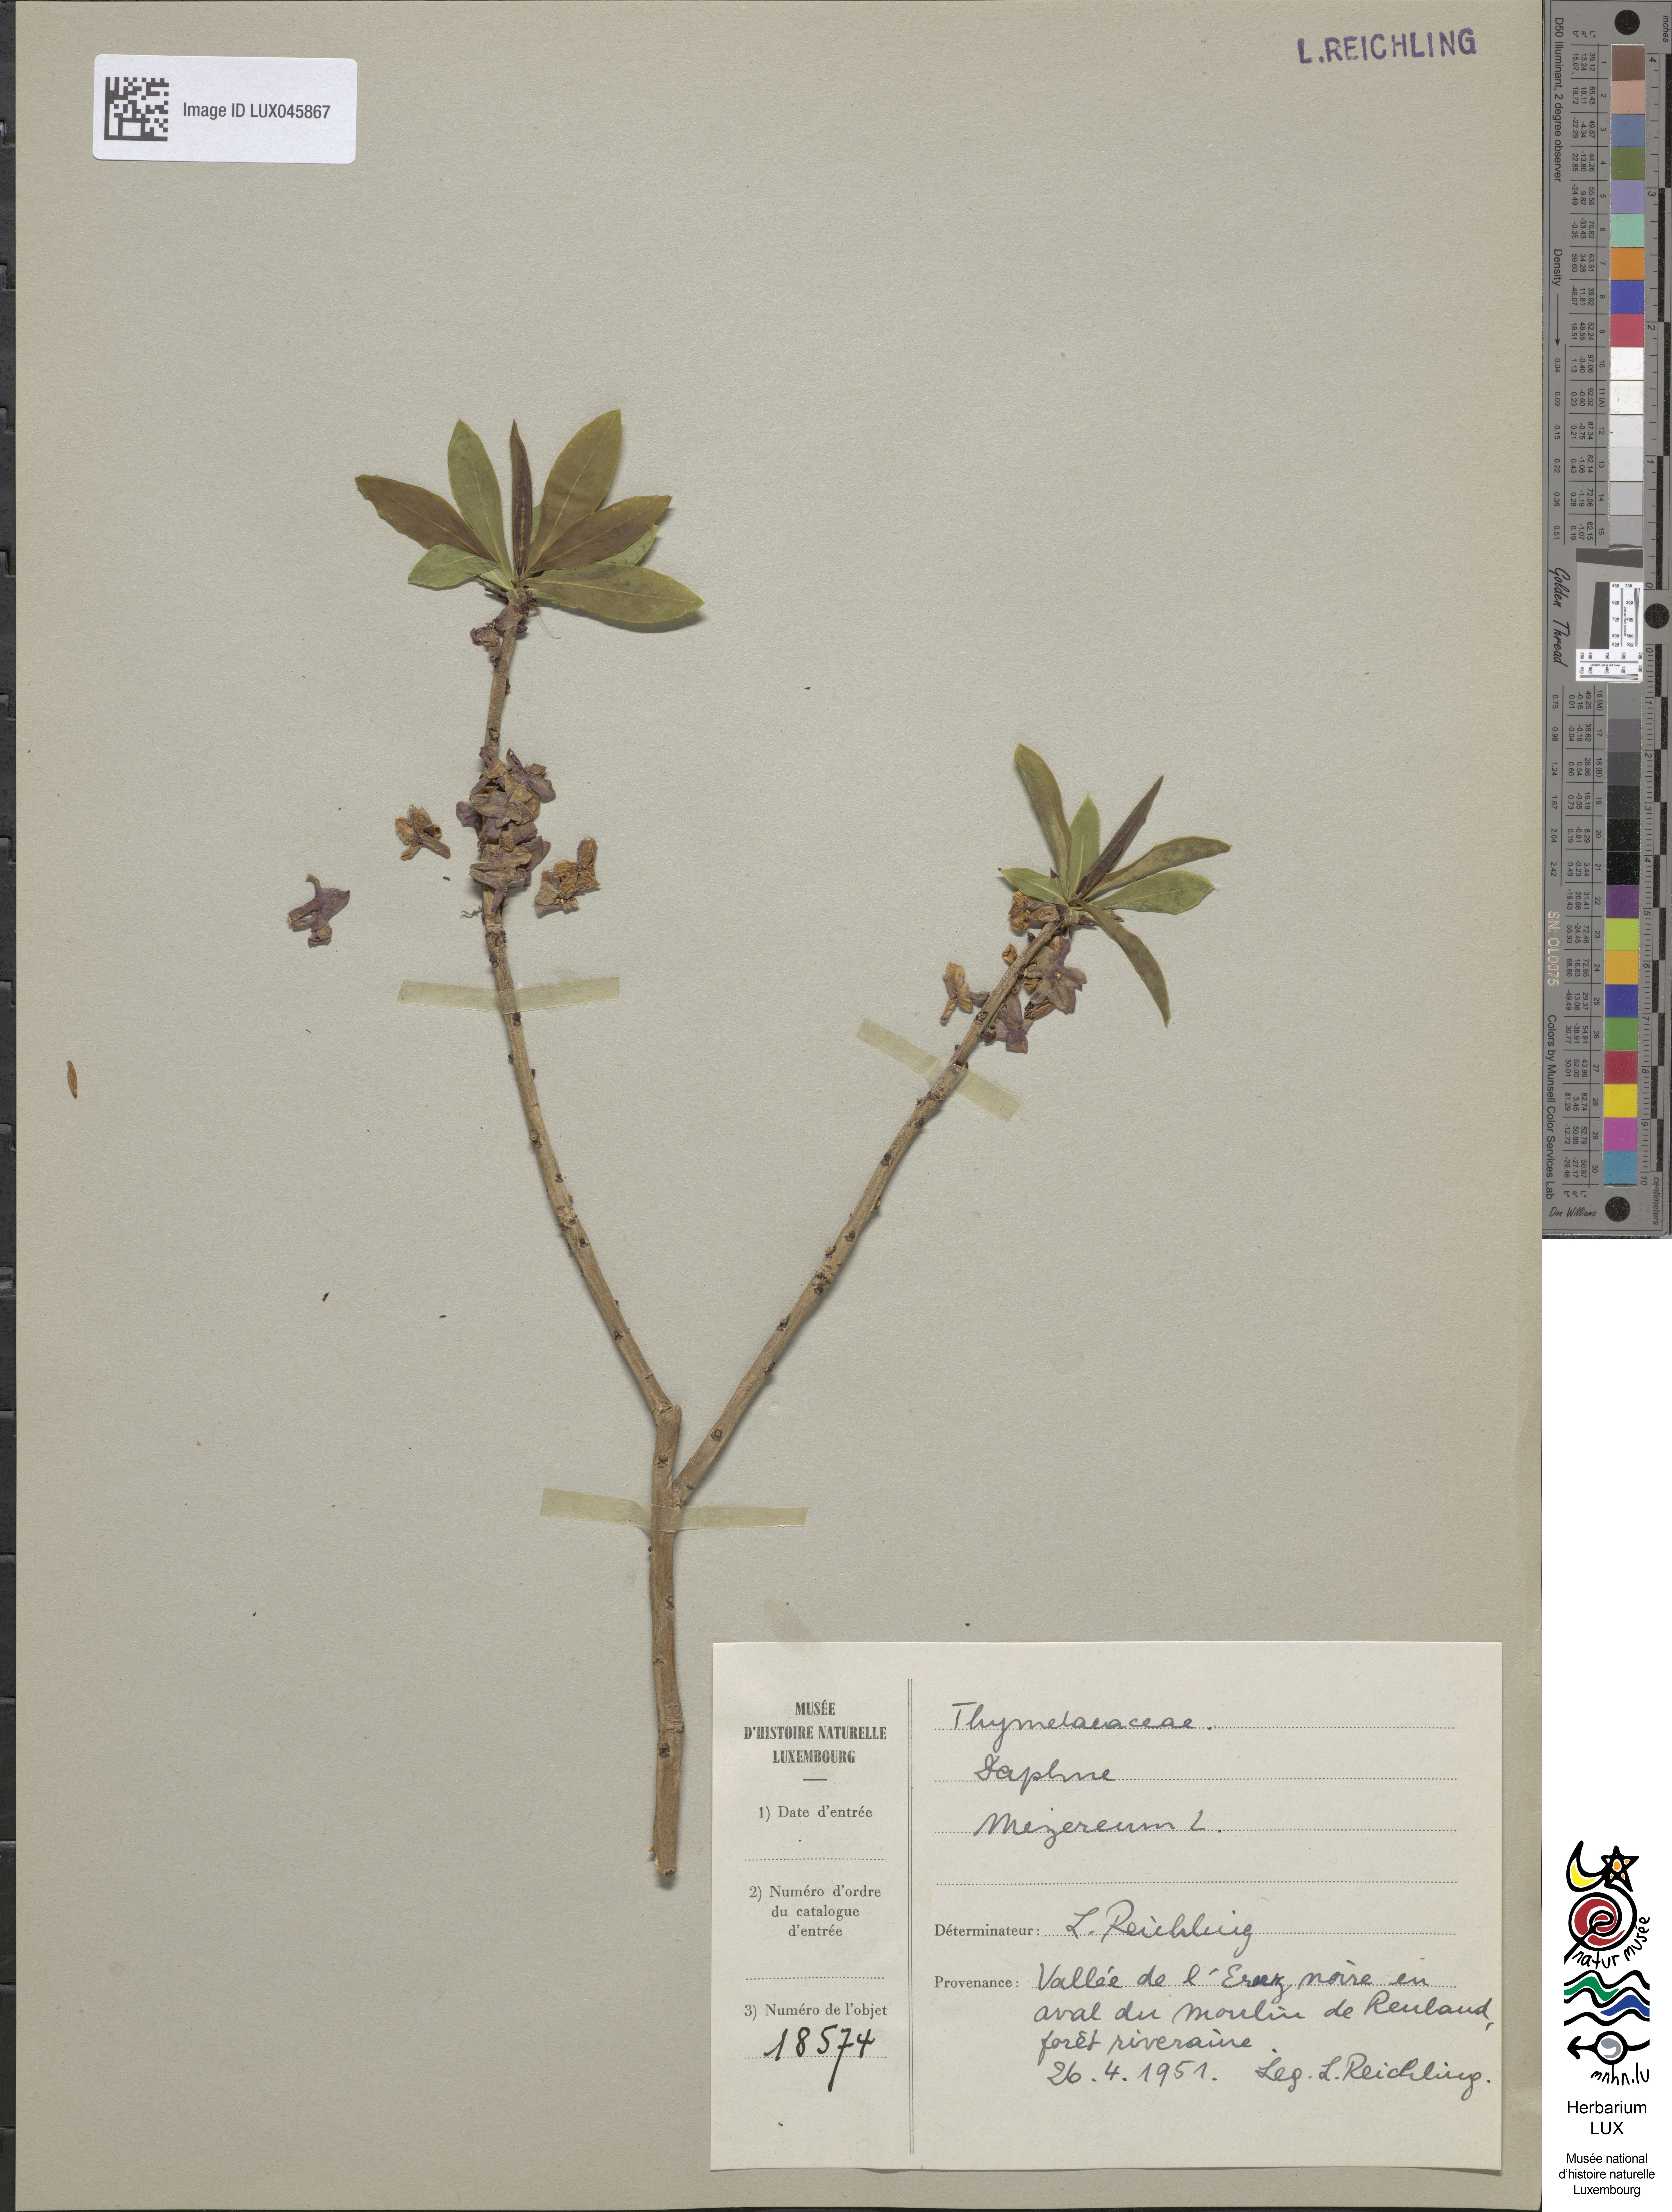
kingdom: Plantae
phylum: Tracheophyta
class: Magnoliopsida
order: Malvales
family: Thymelaeaceae
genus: Daphne
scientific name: Daphne mezereum
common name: Mezereon
